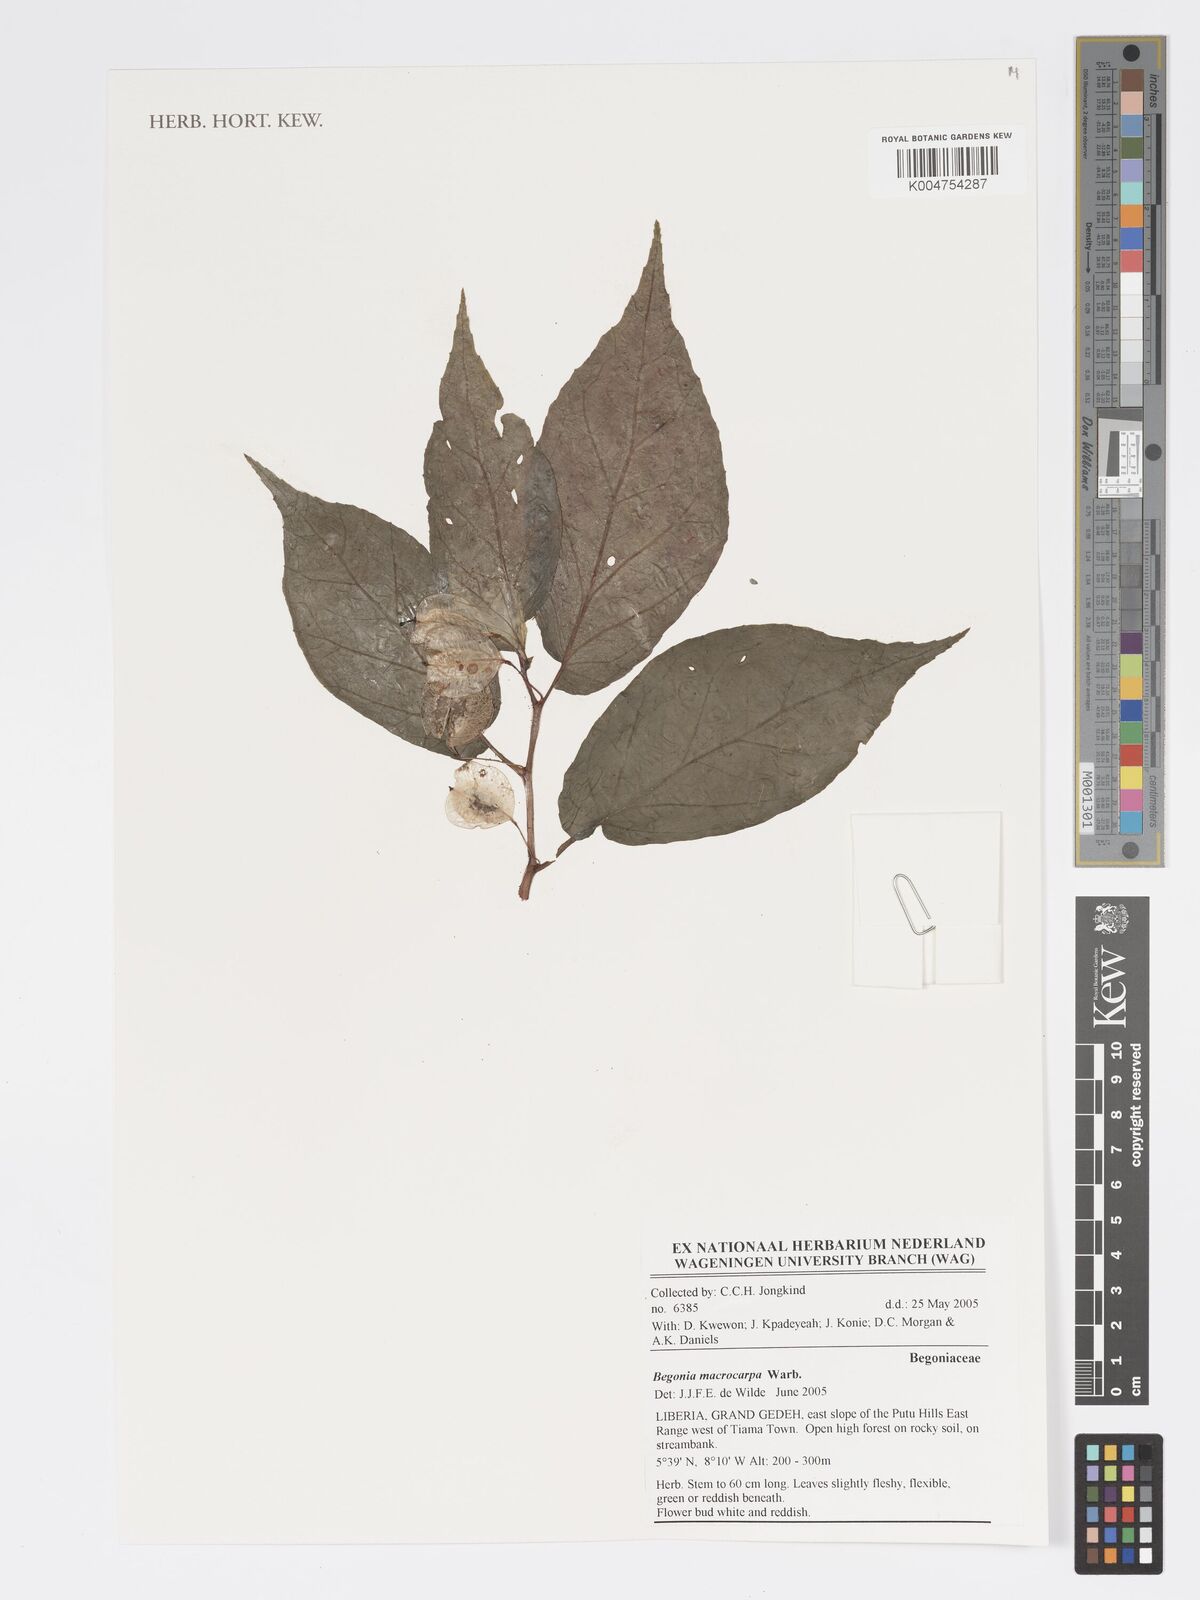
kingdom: Plantae
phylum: Tracheophyta
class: Magnoliopsida
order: Cucurbitales
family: Begoniaceae
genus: Begonia
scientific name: Begonia macrocarpa
